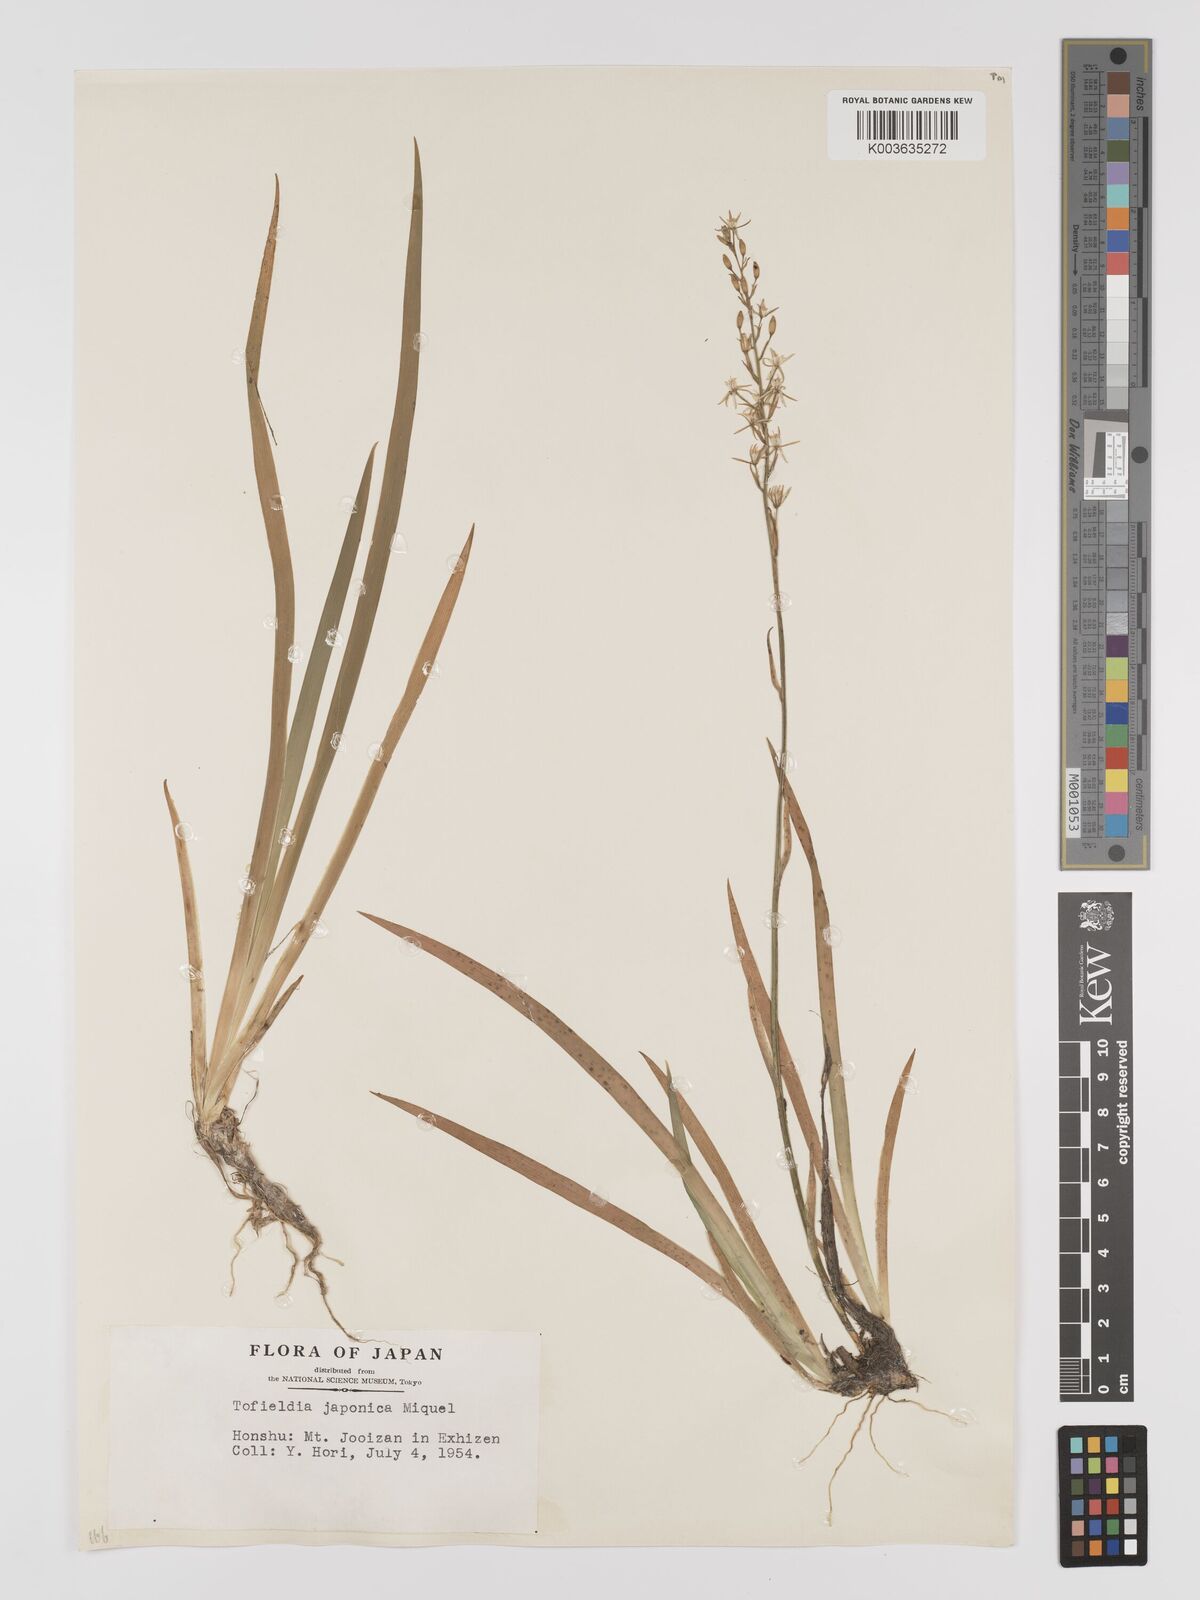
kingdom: Plantae
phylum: Tracheophyta
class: Liliopsida
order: Dioscoreales
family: Nartheciaceae
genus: Narthecium
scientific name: Narthecium asiaticum
